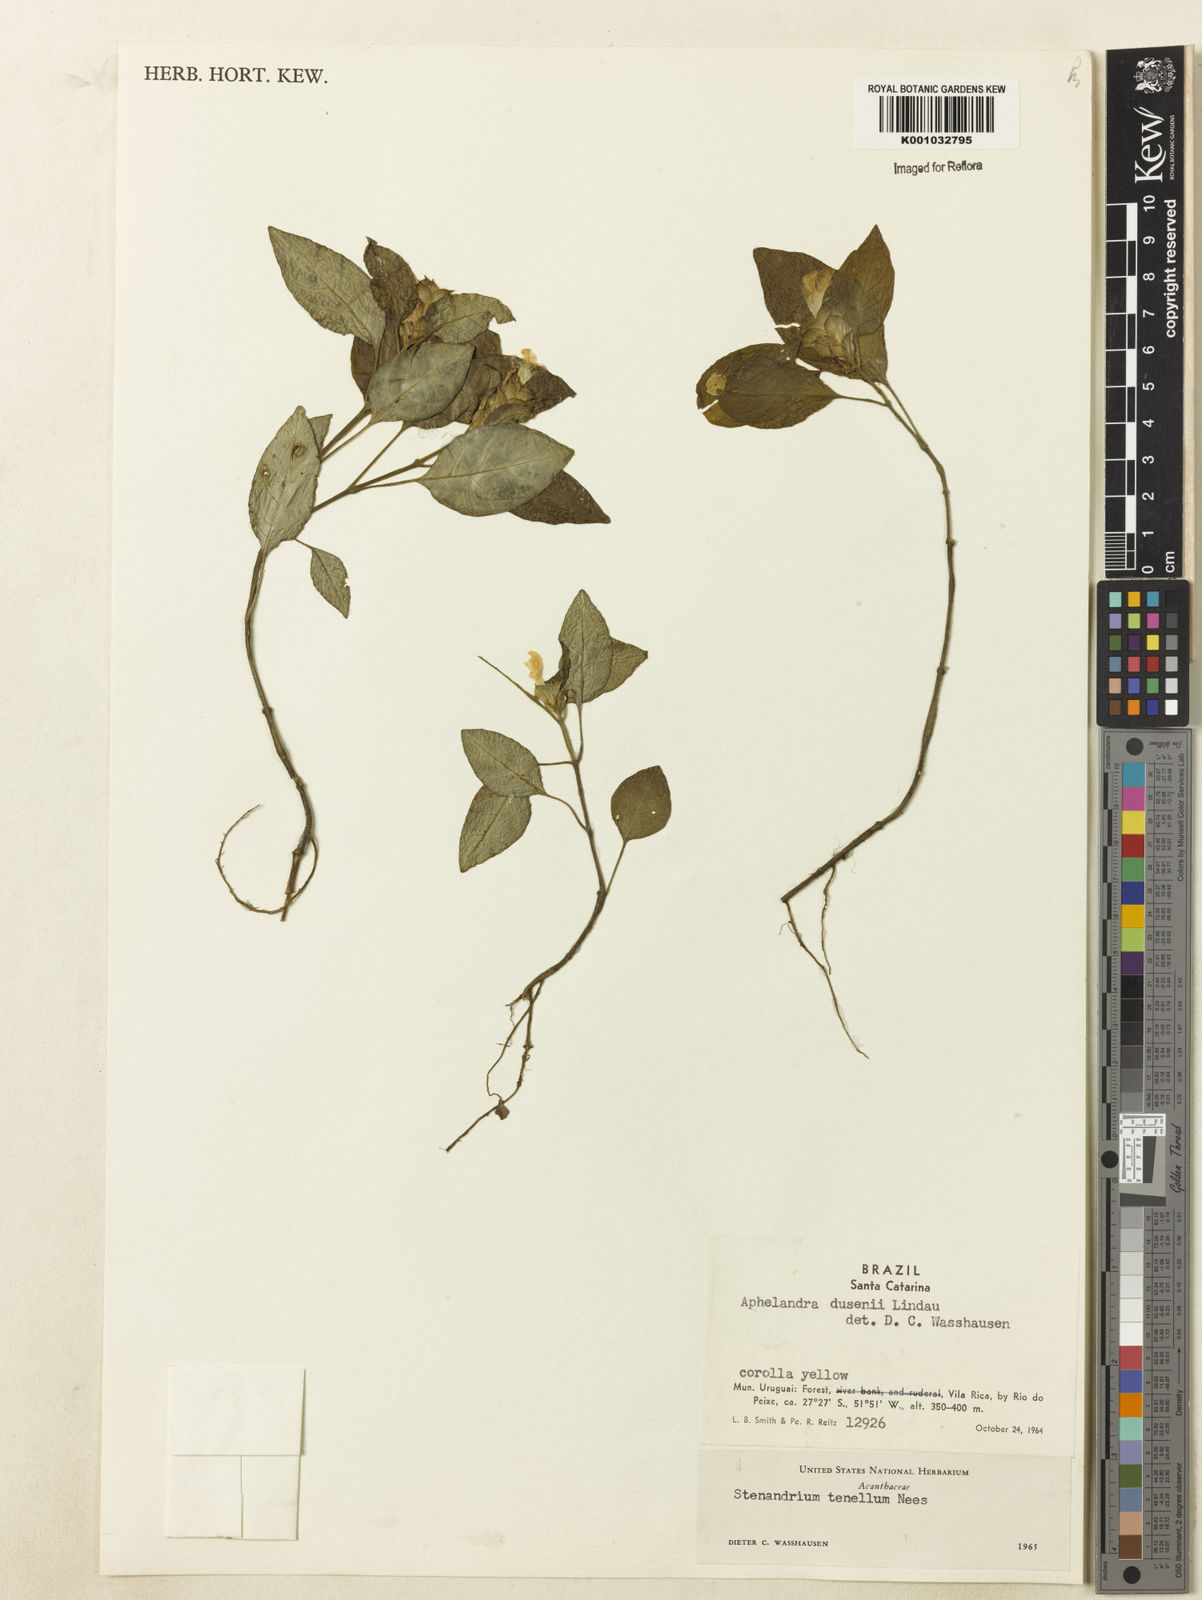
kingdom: Plantae
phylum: Tracheophyta
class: Magnoliopsida
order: Lamiales
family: Acanthaceae
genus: Stenandrium
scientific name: Stenandrium tenellum
